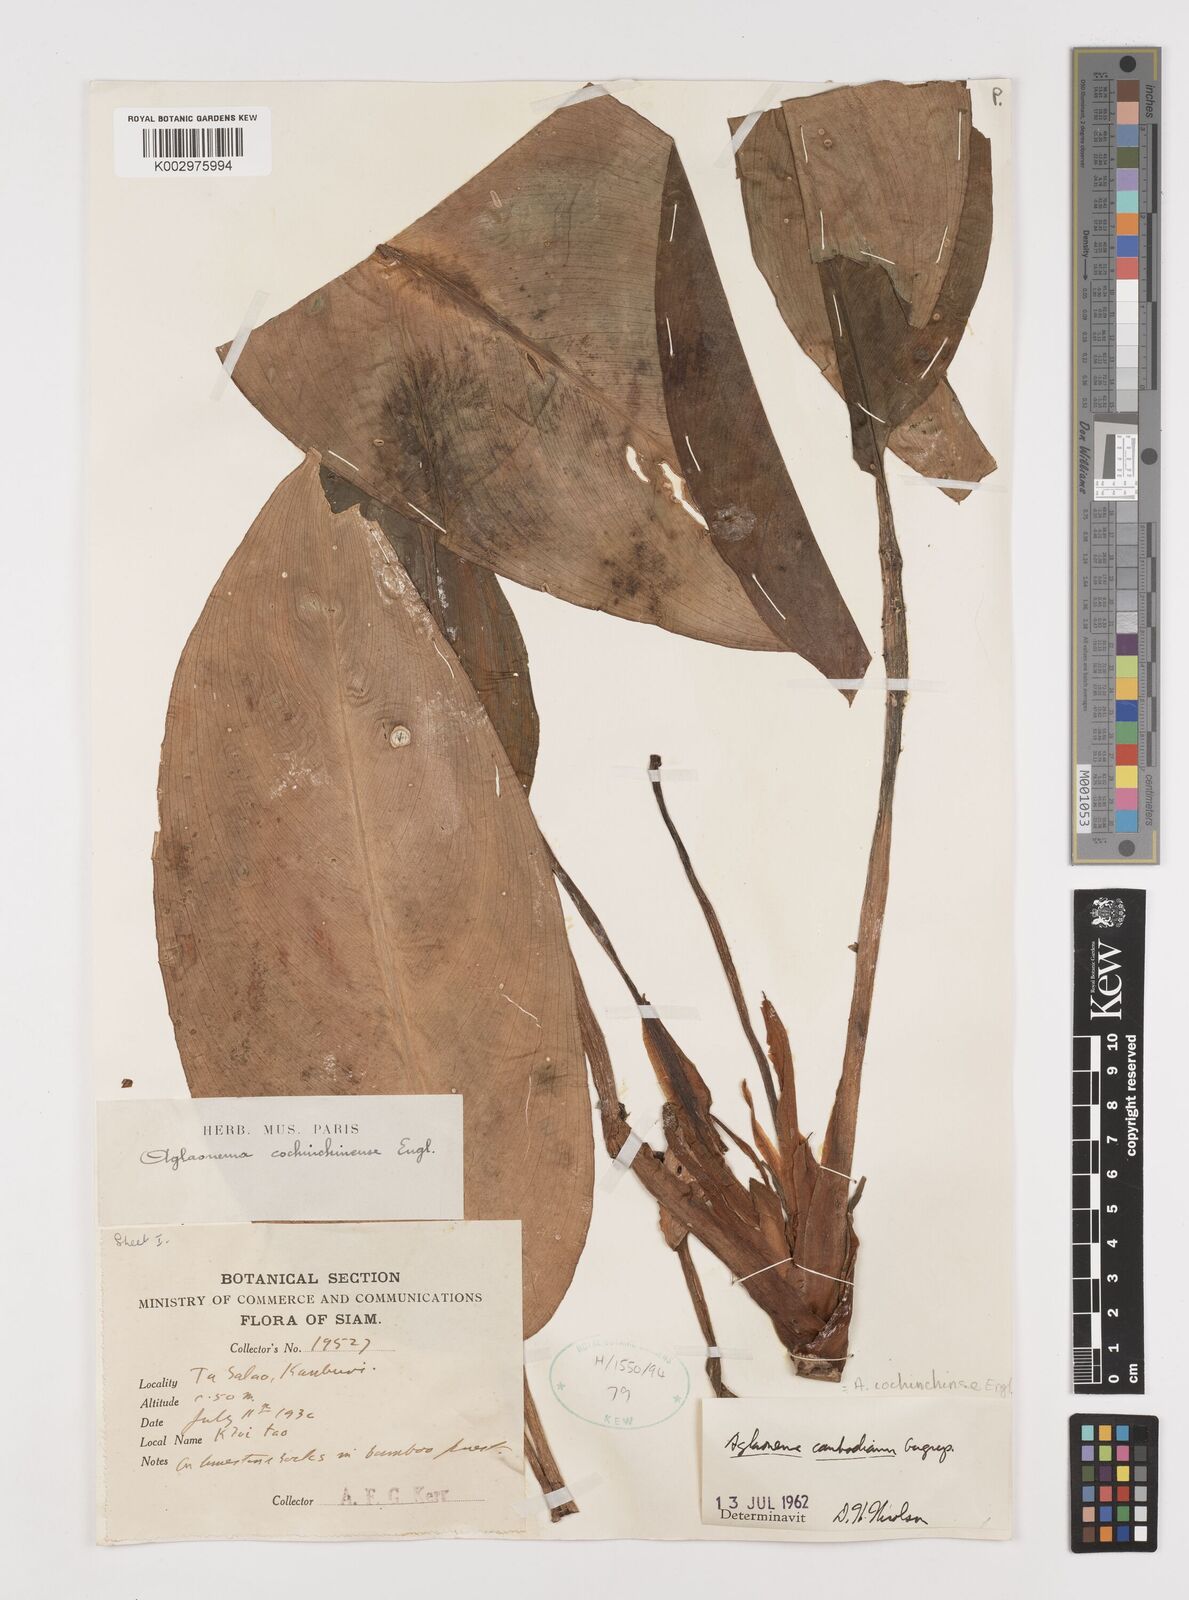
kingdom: Plantae
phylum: Tracheophyta
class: Liliopsida
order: Alismatales
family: Araceae
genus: Aglaonema
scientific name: Aglaonema cochinchinense
